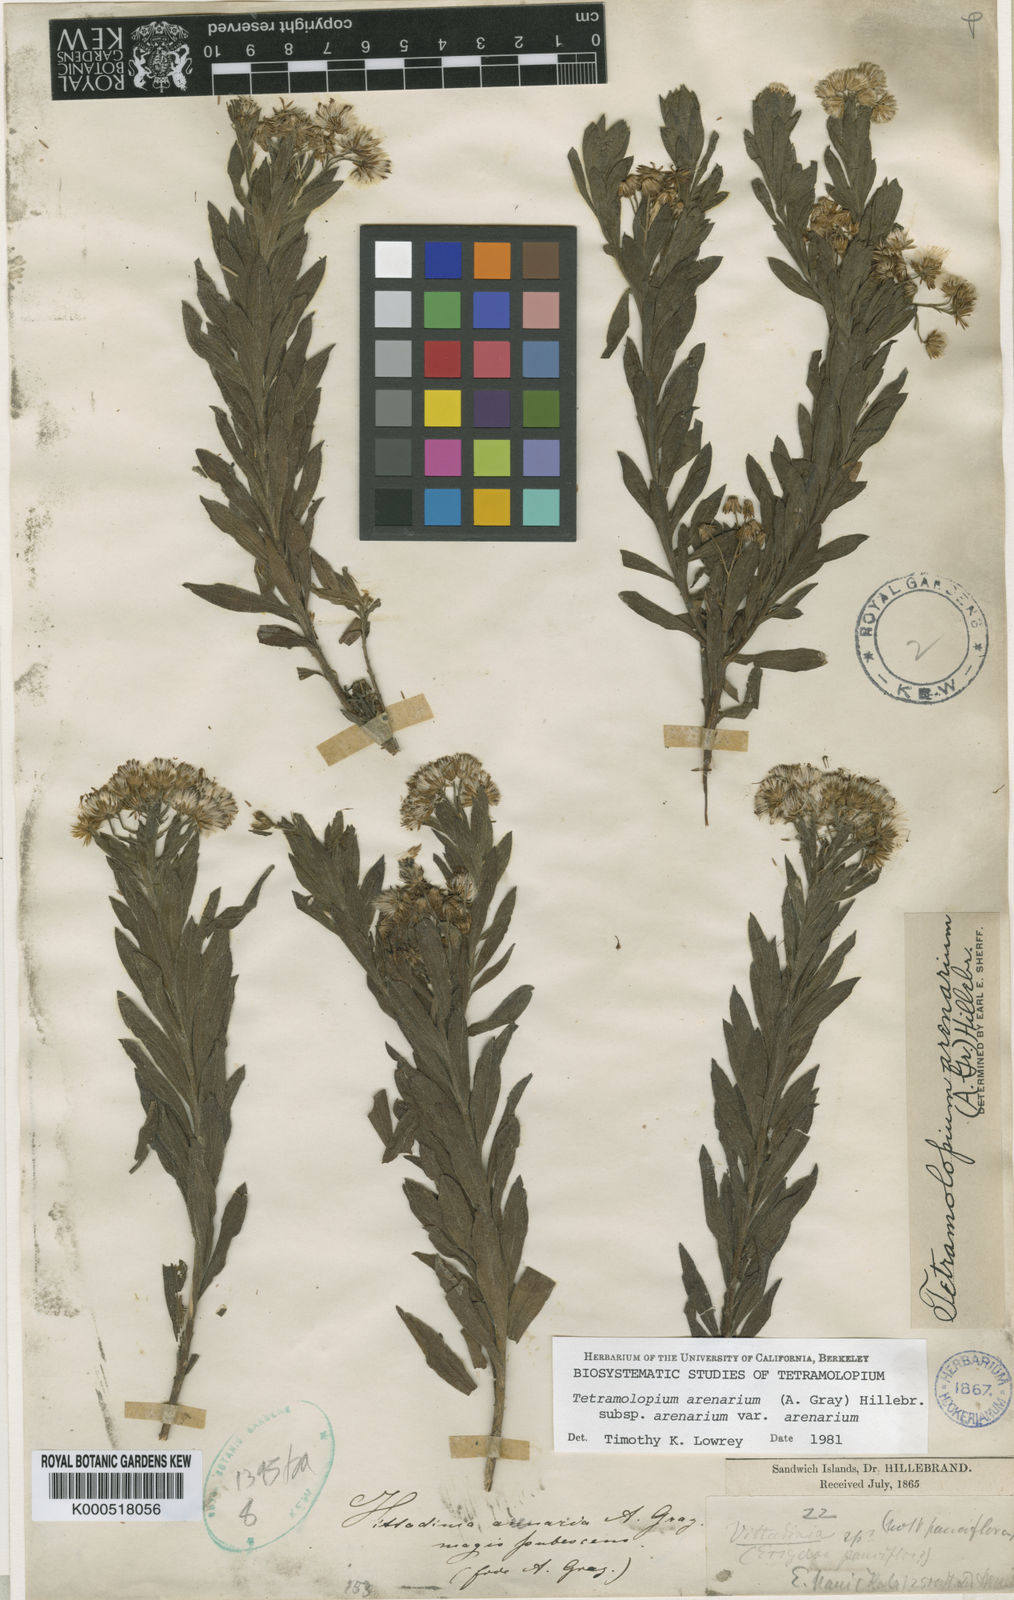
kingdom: Plantae
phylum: Tracheophyta
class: Magnoliopsida
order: Asterales
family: Asteraceae
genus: Tetramolopium
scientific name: Tetramolopium arenarium
